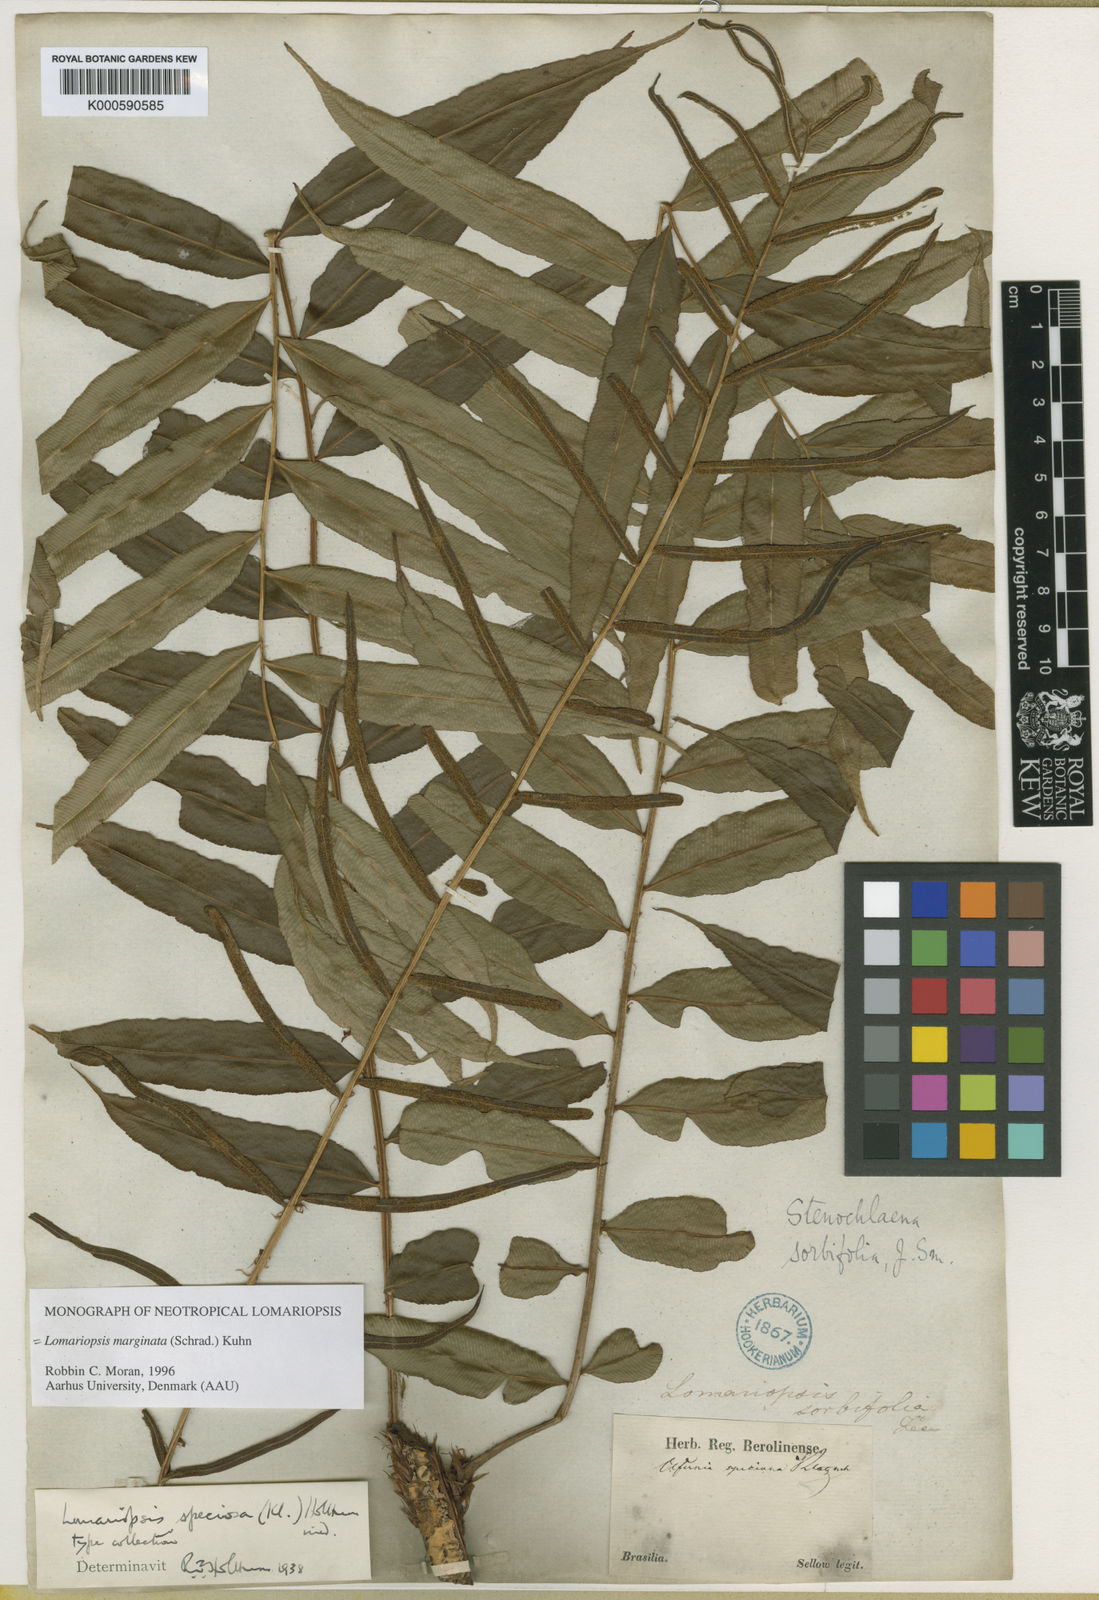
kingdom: Plantae
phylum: Tracheophyta
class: Polypodiopsida
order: Polypodiales
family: Lomariopsidaceae
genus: Lomariopsis
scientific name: Lomariopsis marginata
